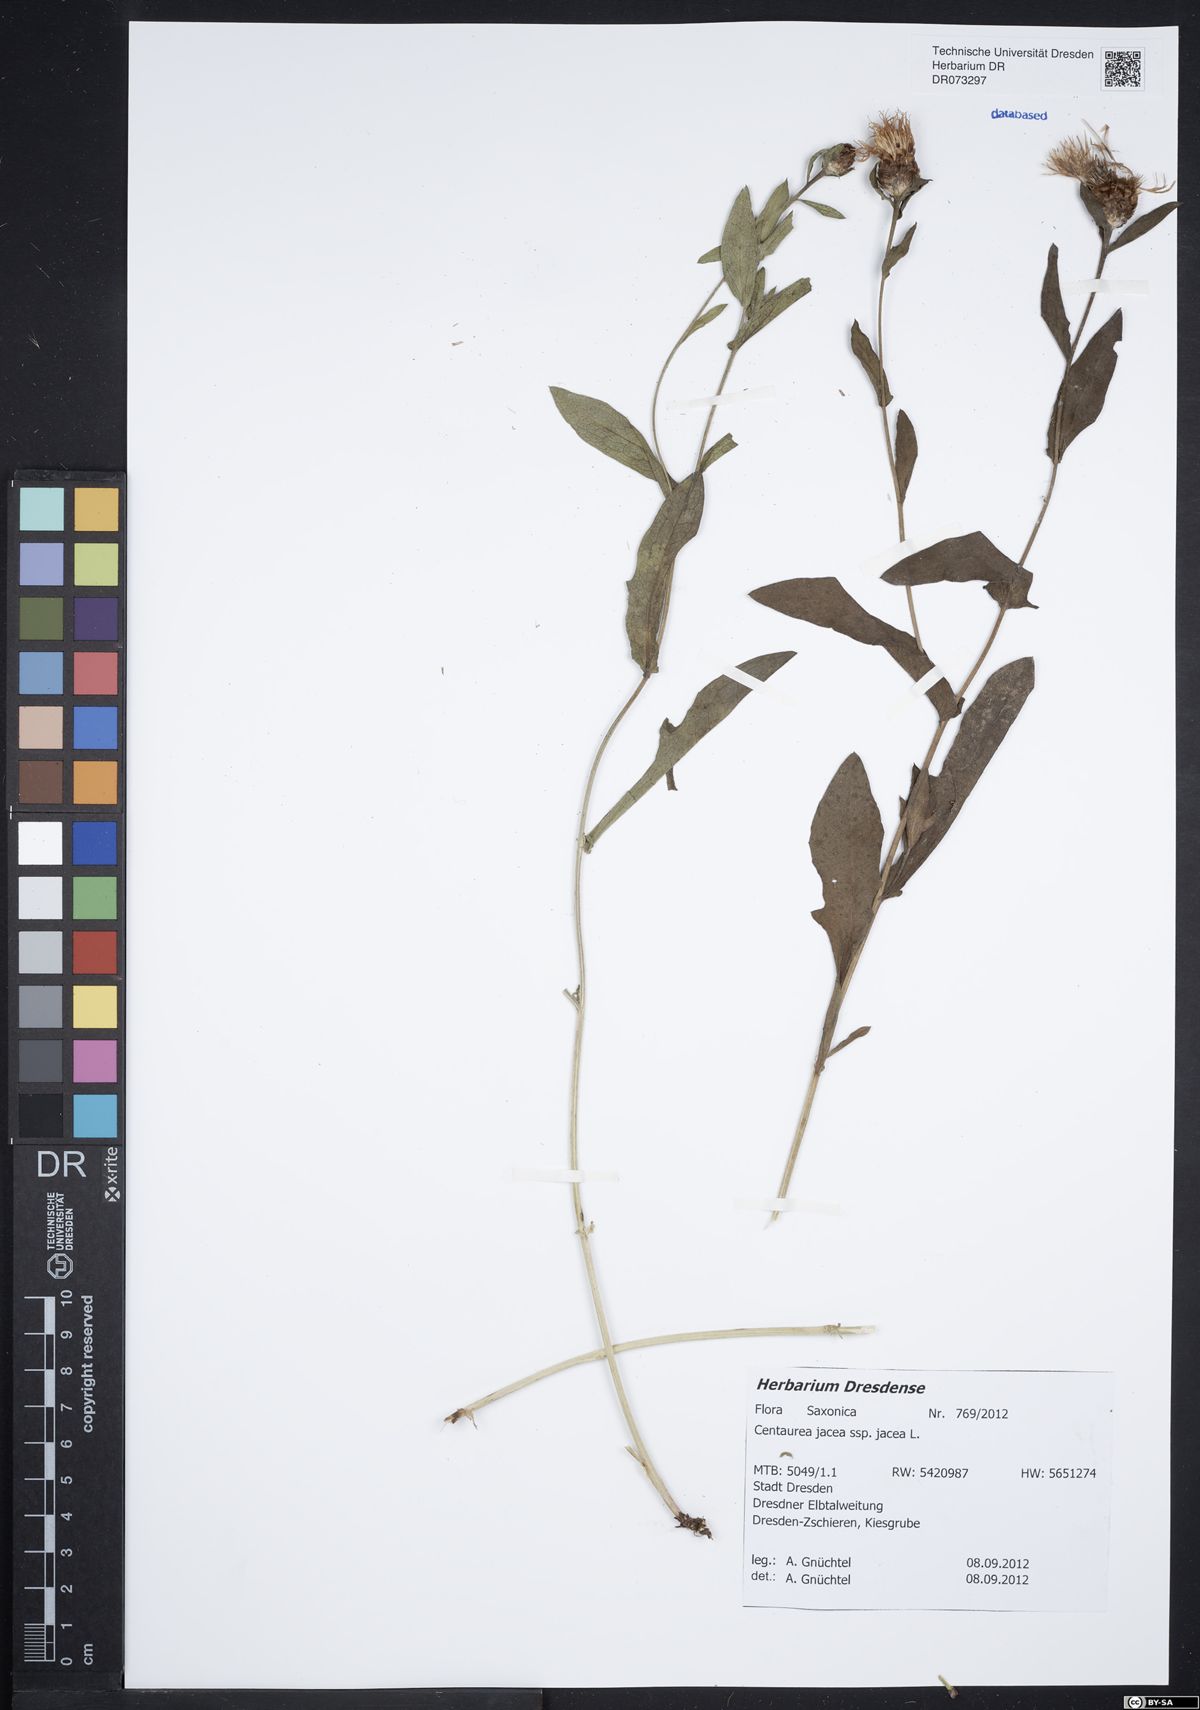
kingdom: Plantae
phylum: Tracheophyta
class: Magnoliopsida
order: Asterales
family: Asteraceae
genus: Centaurea
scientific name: Centaurea jacea
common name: Brown knapweed
